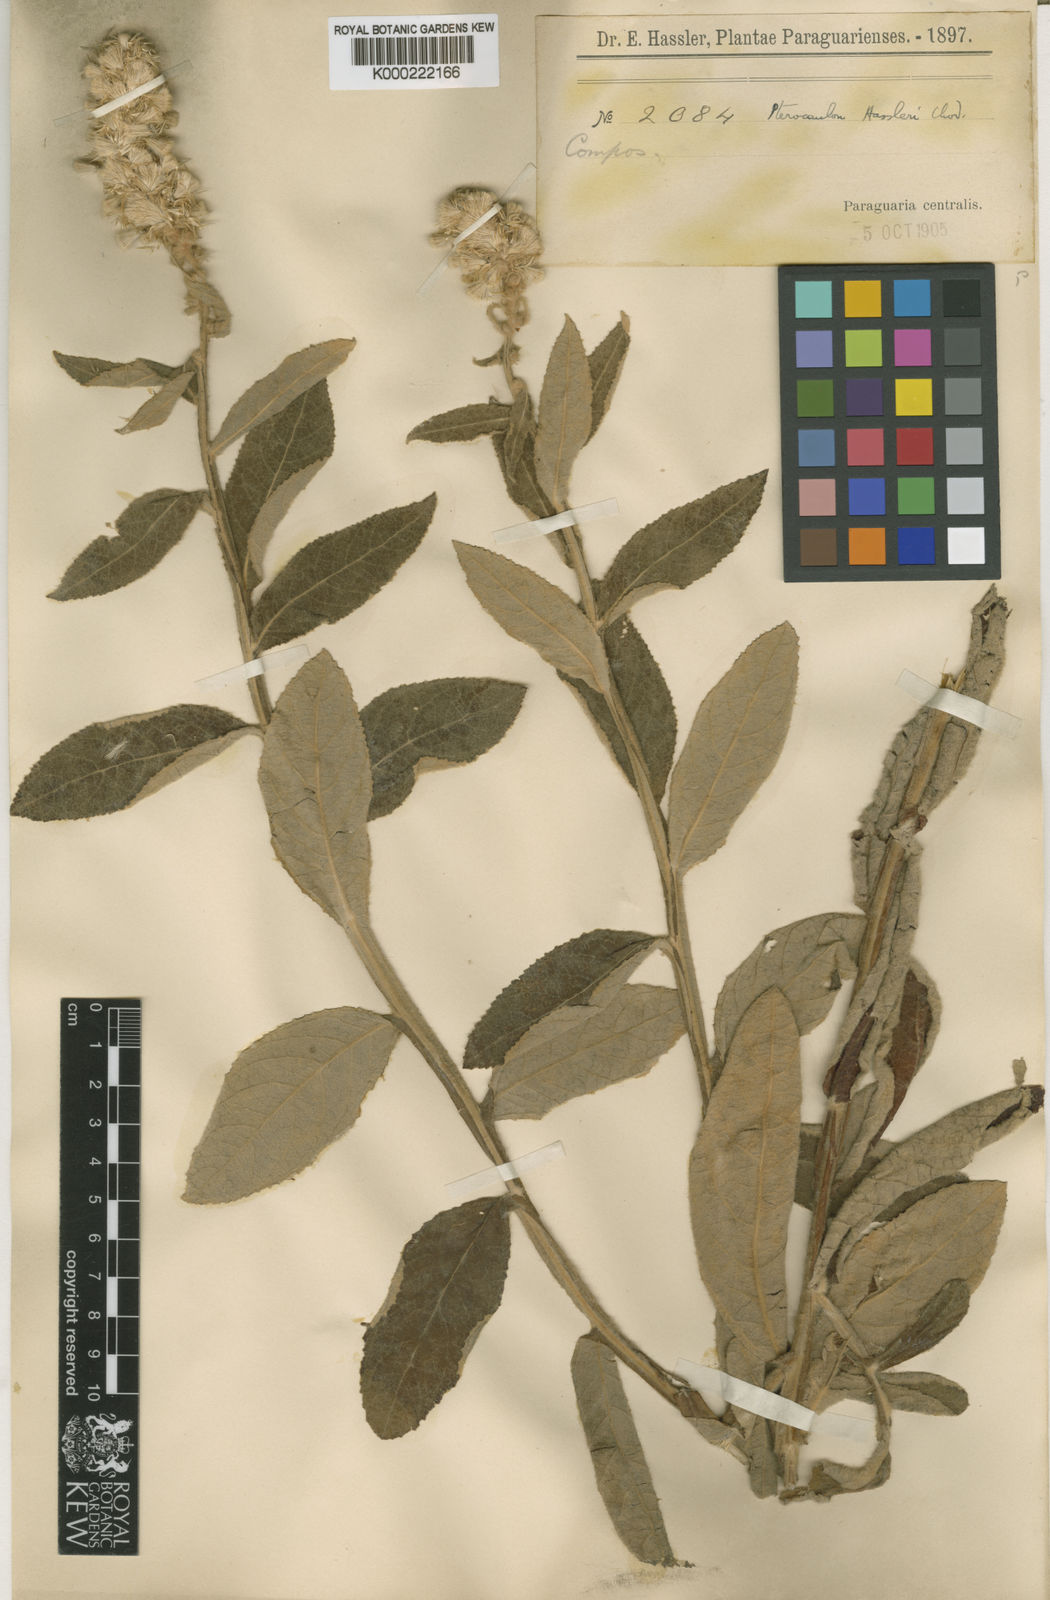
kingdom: Plantae
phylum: Tracheophyta
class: Magnoliopsida
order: Asterales
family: Asteraceae
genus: Pterocaulon
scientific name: Pterocaulon lanatum
